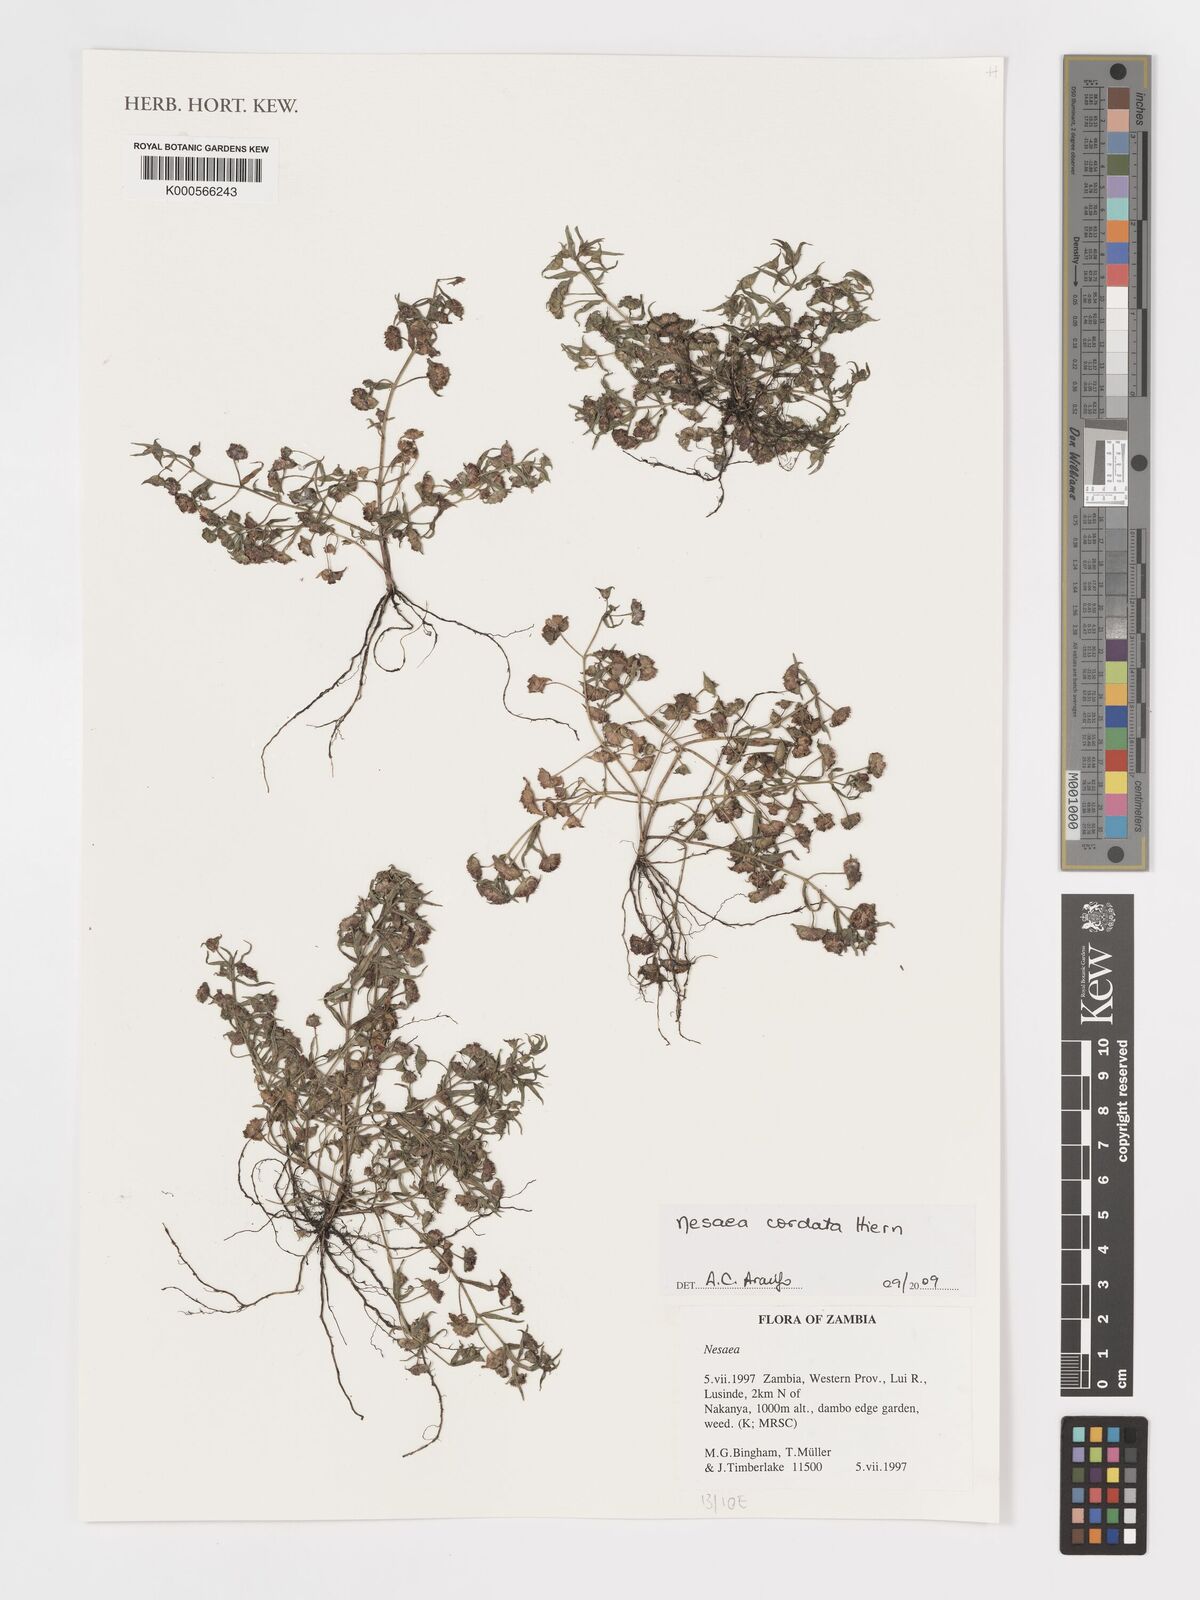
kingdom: Plantae
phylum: Tracheophyta
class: Magnoliopsida
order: Myrtales
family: Lythraceae
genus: Ammannia
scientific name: Ammannia involucrata
